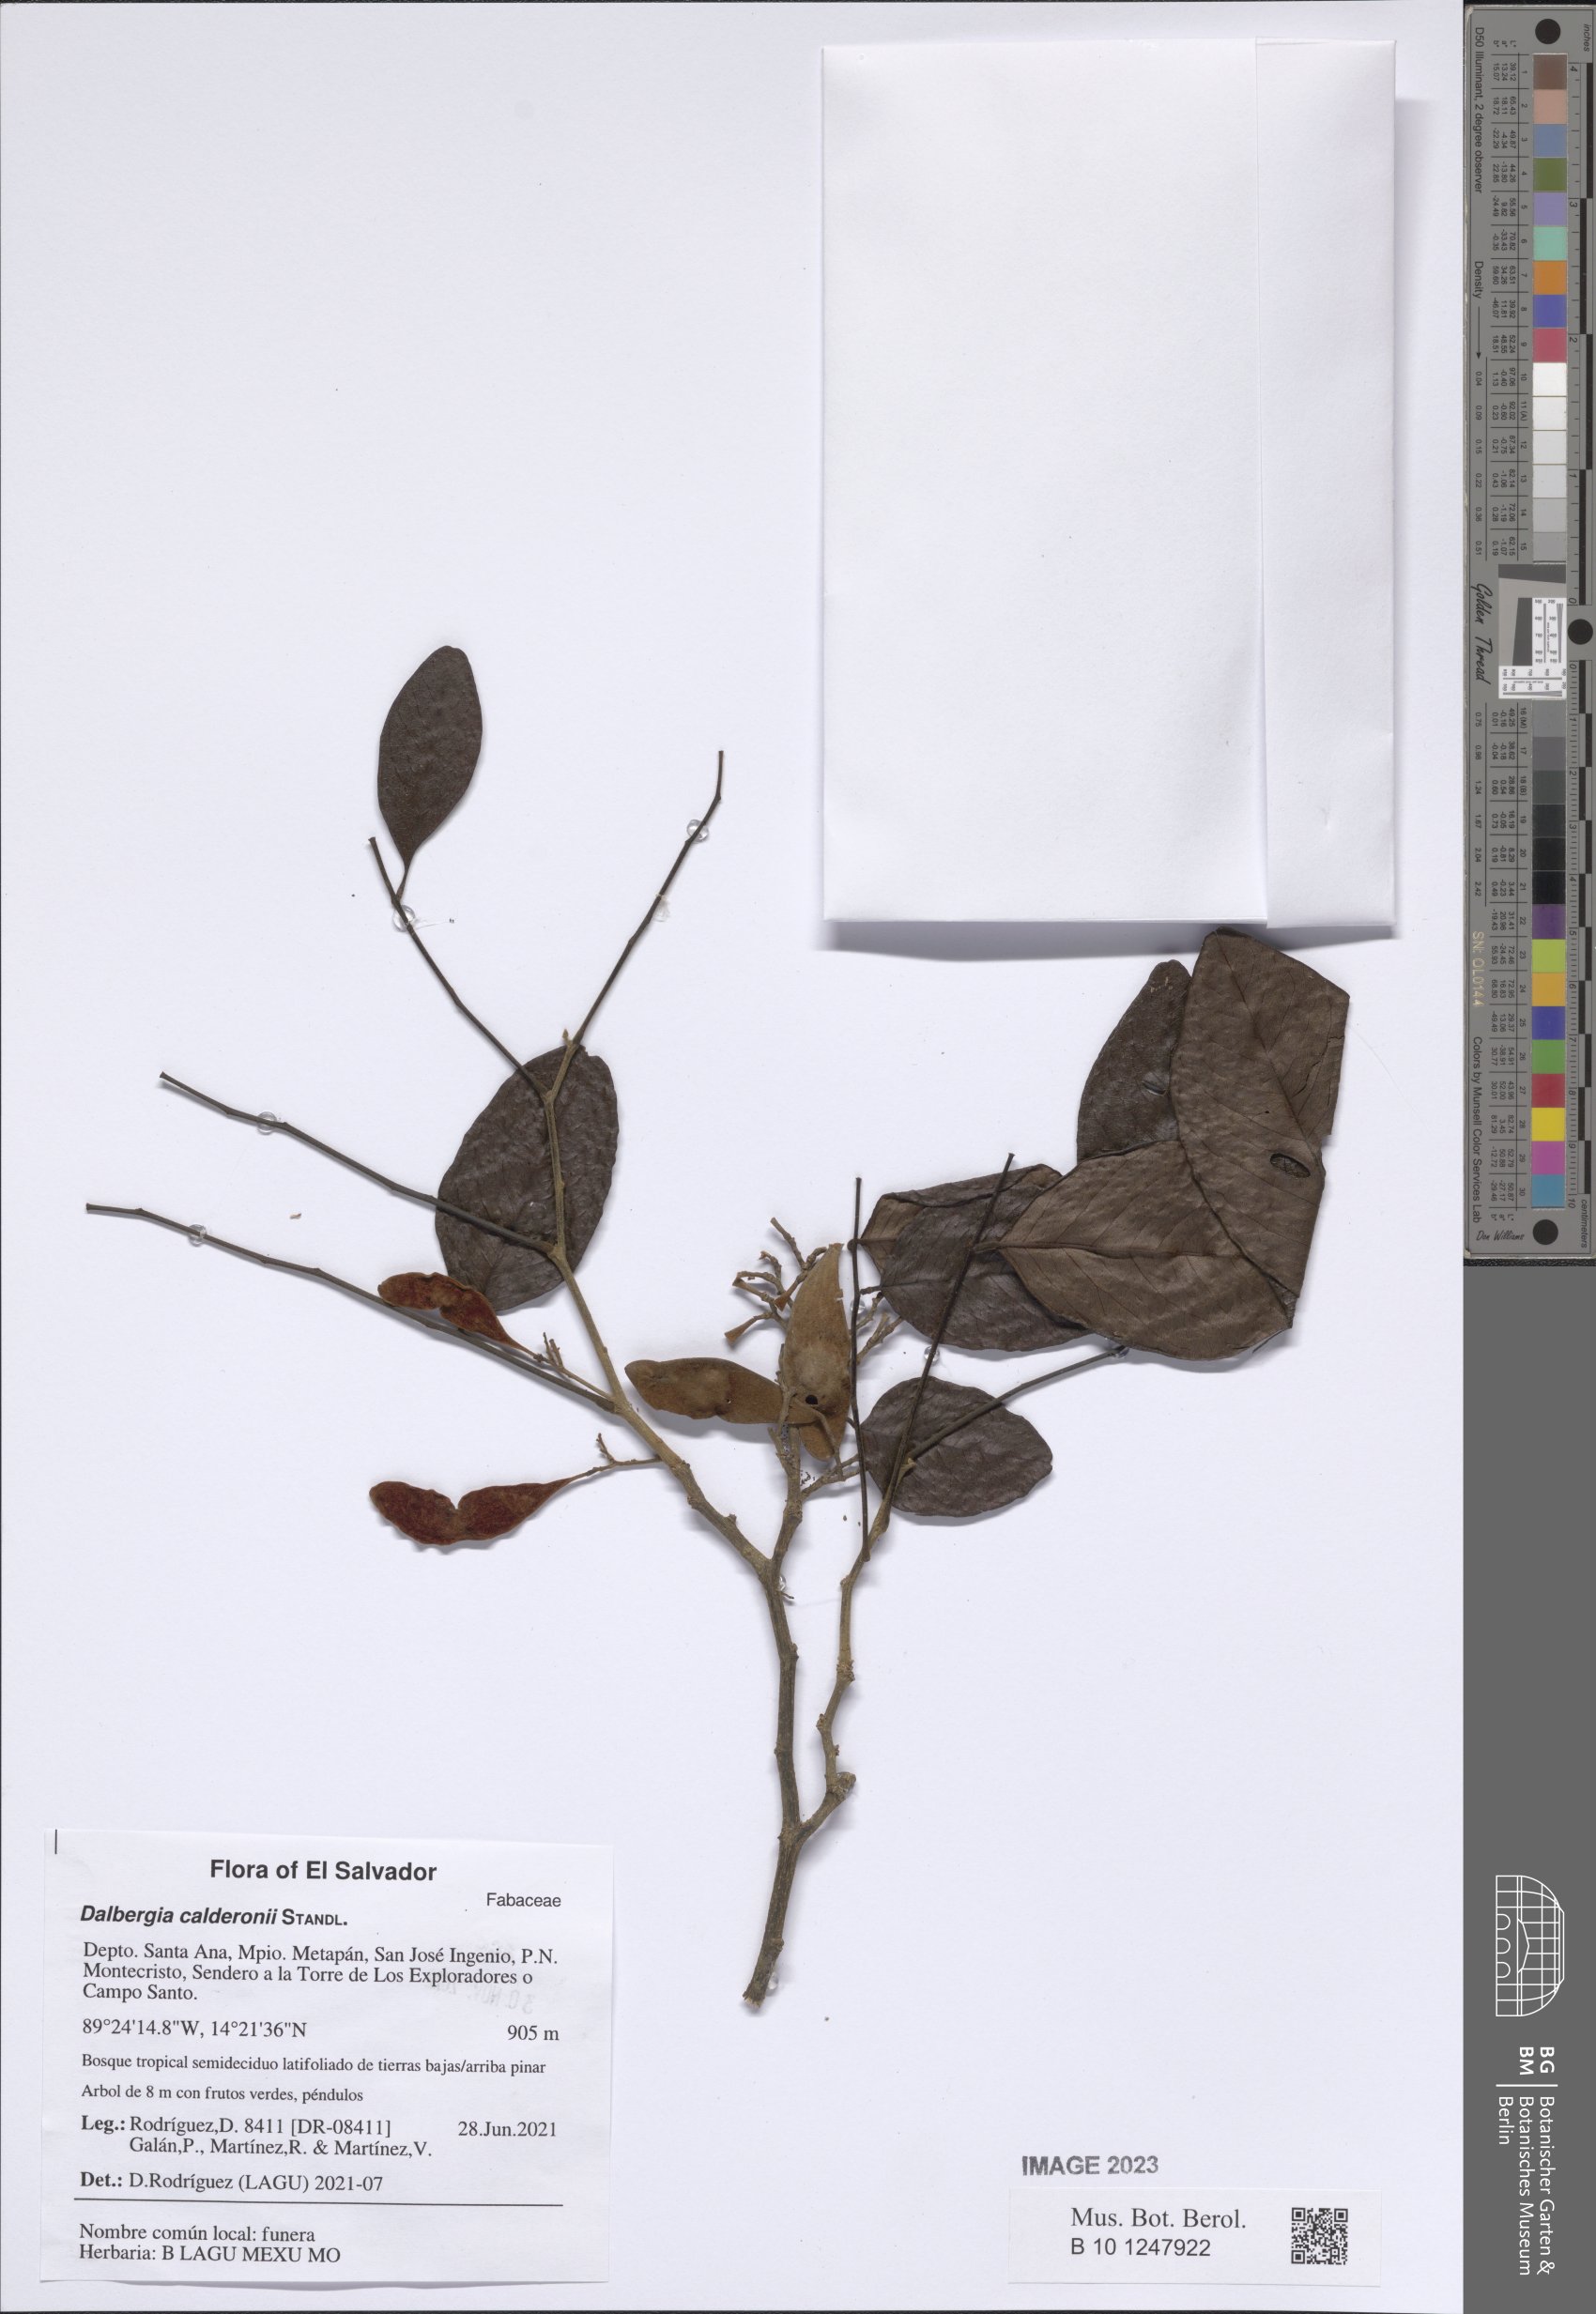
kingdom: Plantae
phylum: Tracheophyta
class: Magnoliopsida
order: Fabales
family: Fabaceae
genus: Dalbergia
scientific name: Dalbergia calderonii
